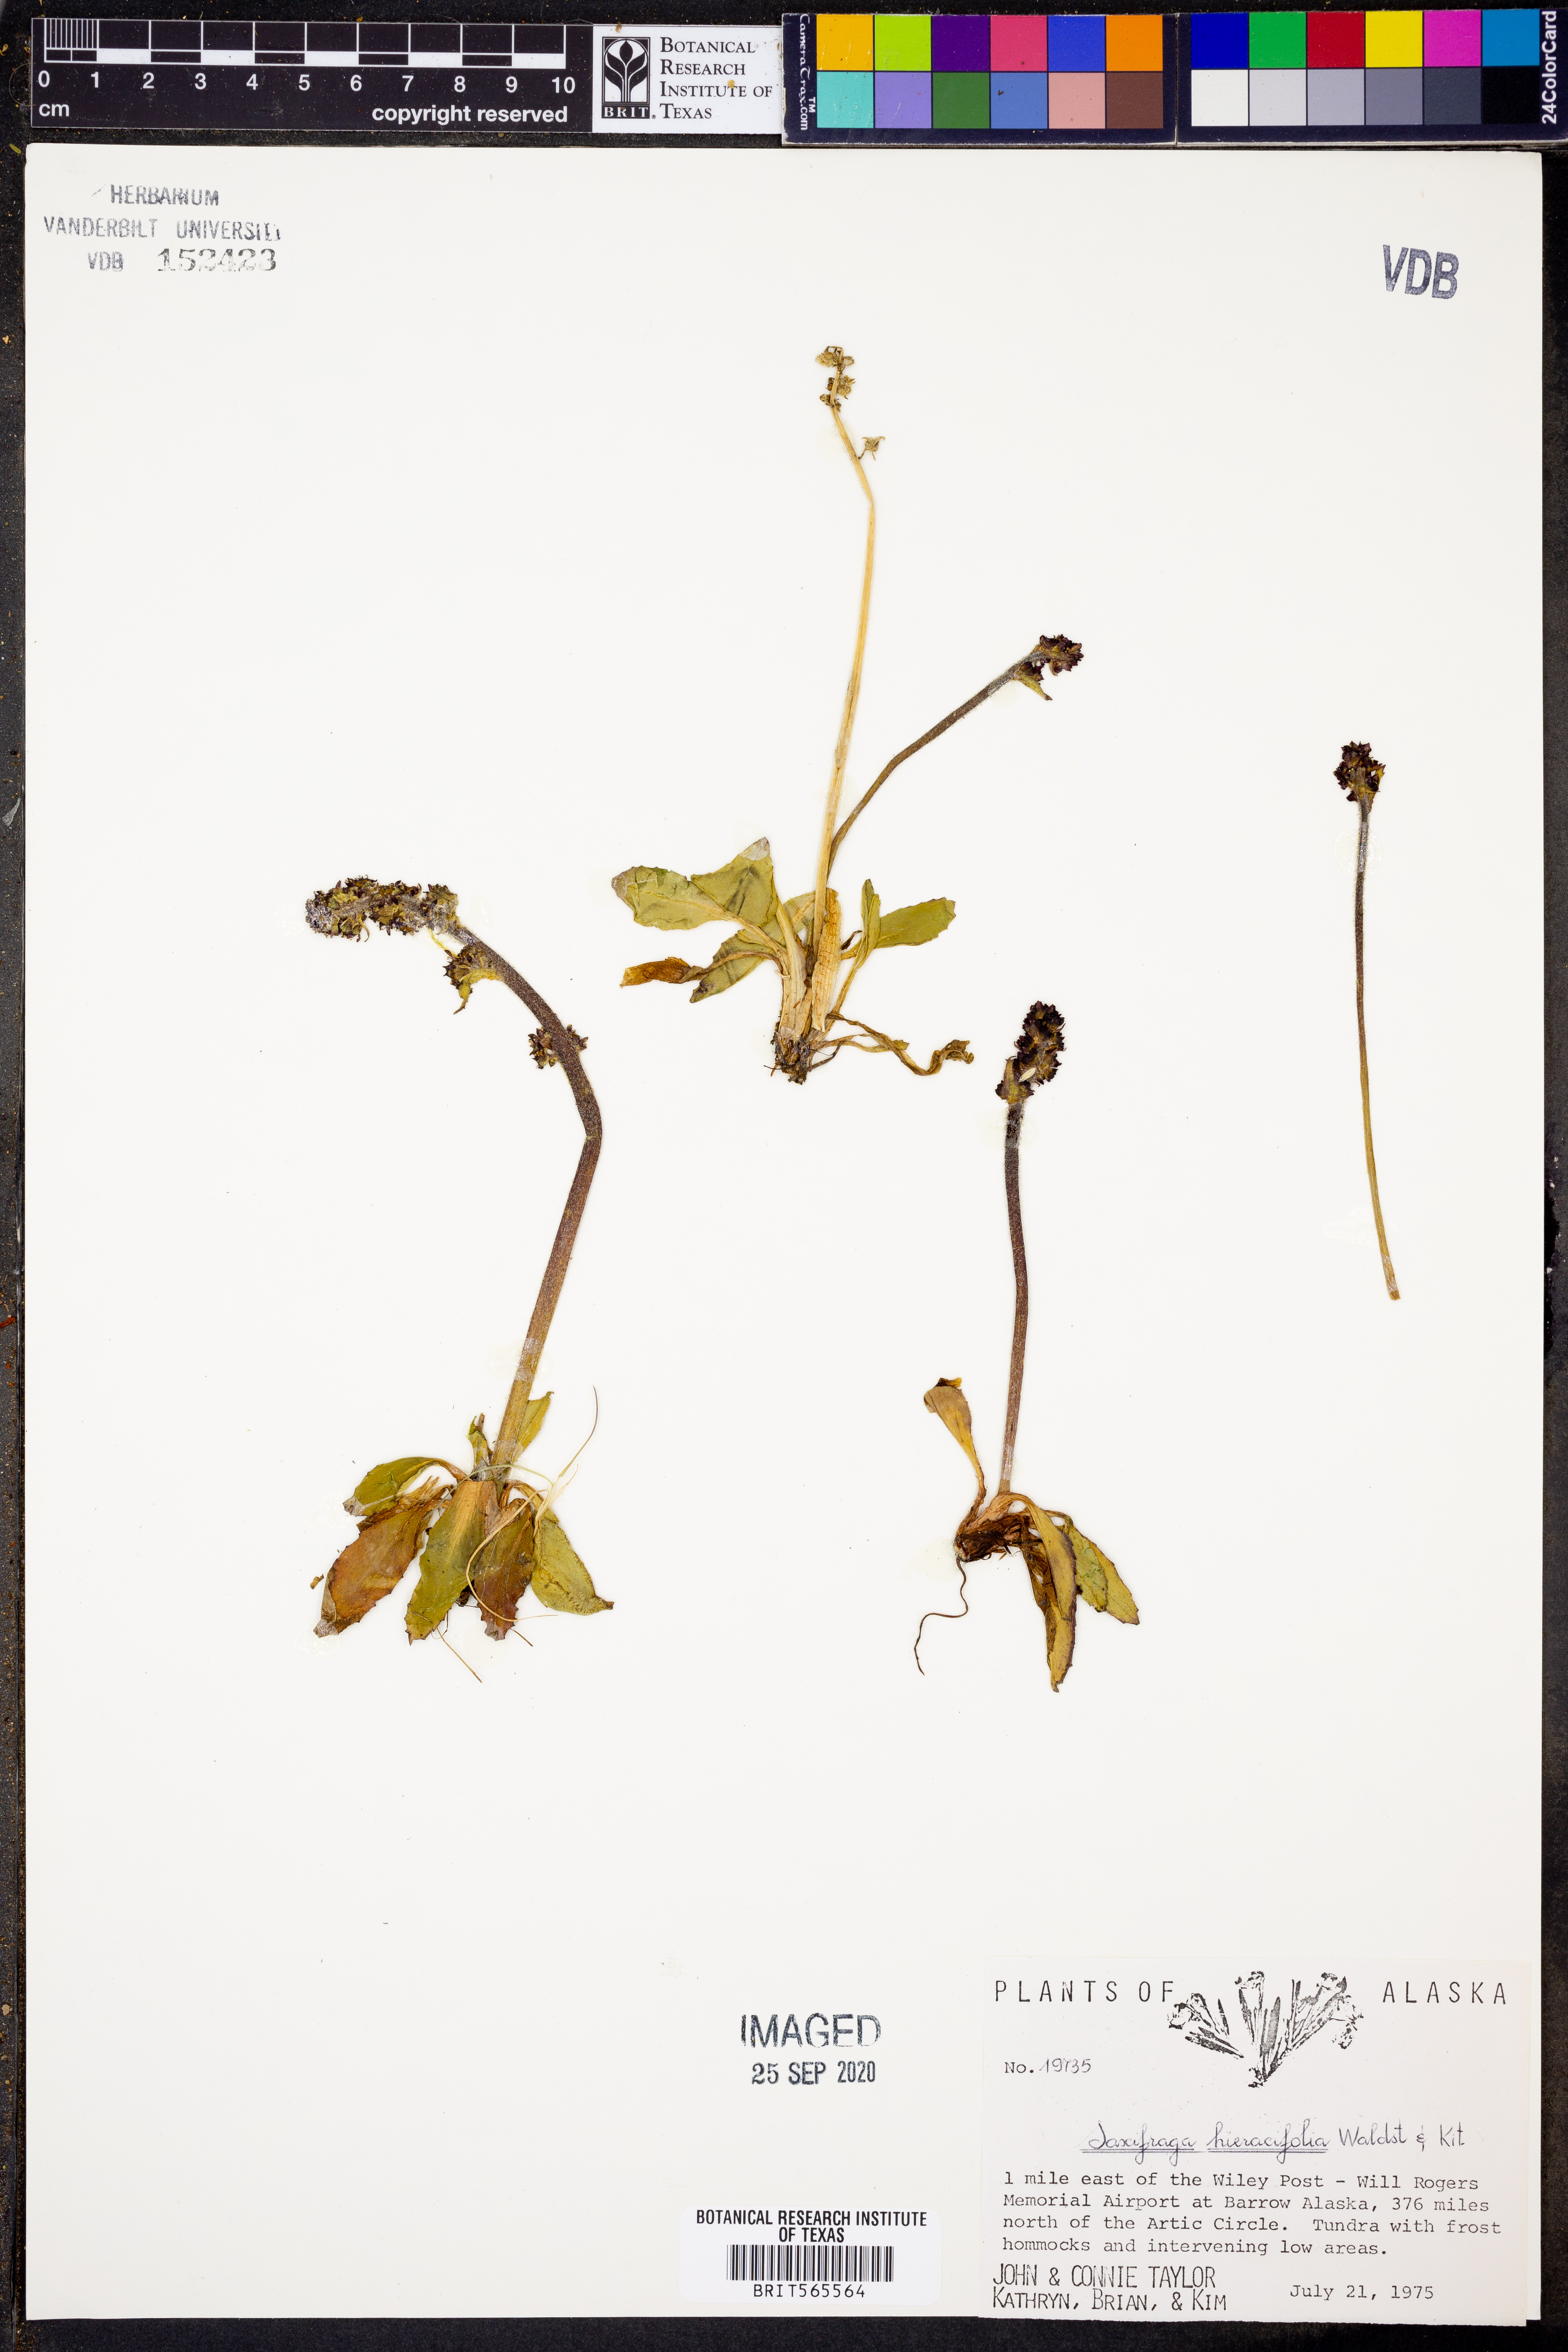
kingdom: Plantae
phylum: Tracheophyta
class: Magnoliopsida
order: Saxifragales
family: Saxifragaceae
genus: Micranthes
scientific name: Micranthes hieraciifolia
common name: Hawkweed-leaved saxifrage
